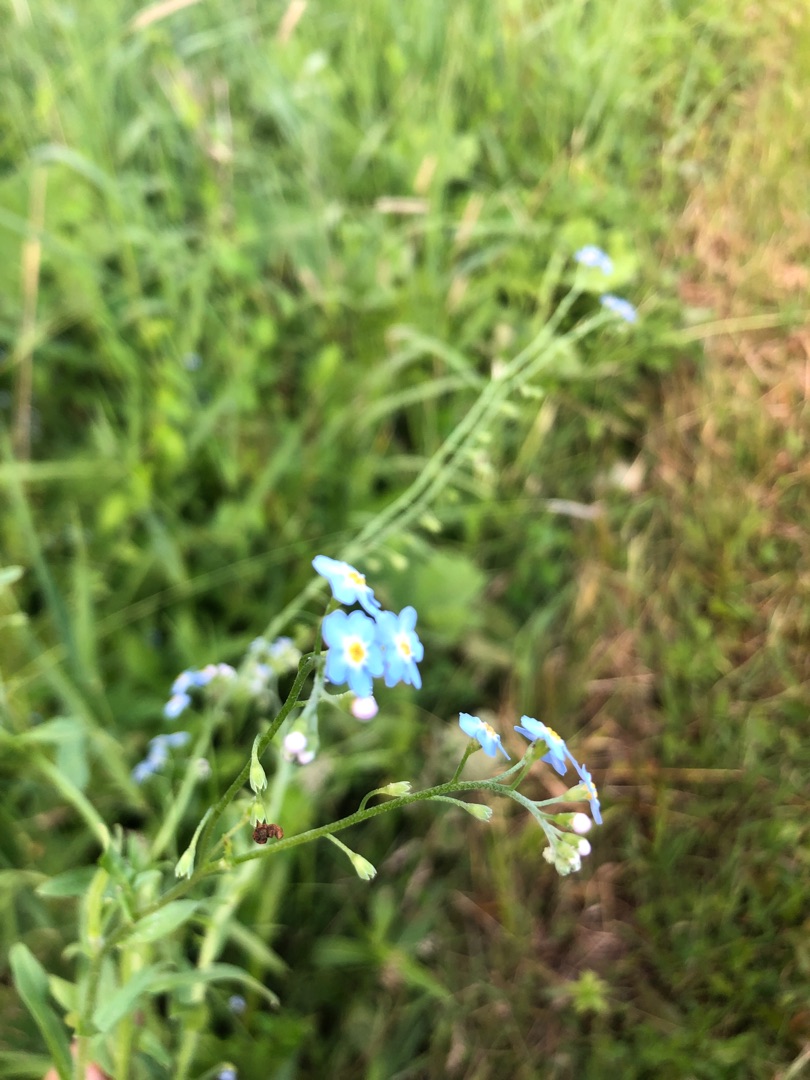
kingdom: Plantae
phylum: Tracheophyta
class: Magnoliopsida
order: Boraginales
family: Boraginaceae
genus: Myosotis
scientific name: Myosotis scorpioides
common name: Eng-forglemmigej
